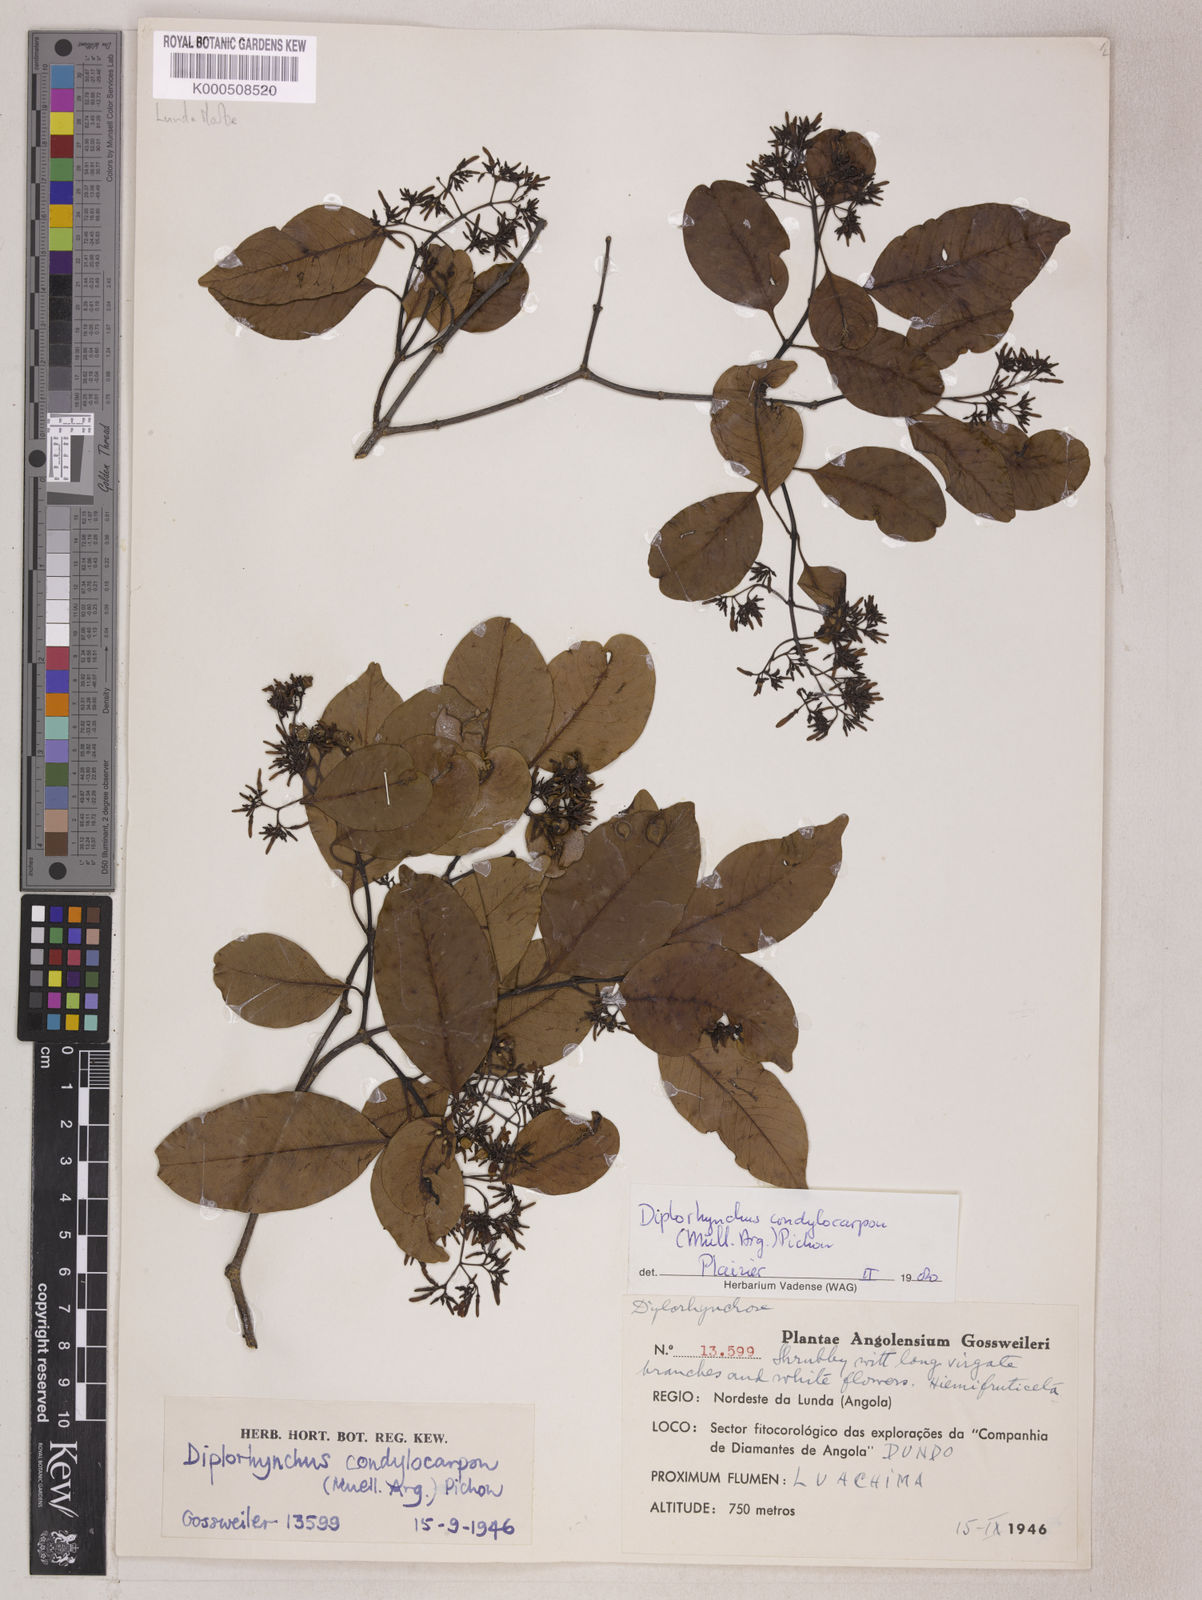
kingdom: Plantae
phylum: Tracheophyta
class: Magnoliopsida
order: Gentianales
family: Apocynaceae
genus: Diplorhynchus
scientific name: Diplorhynchus
